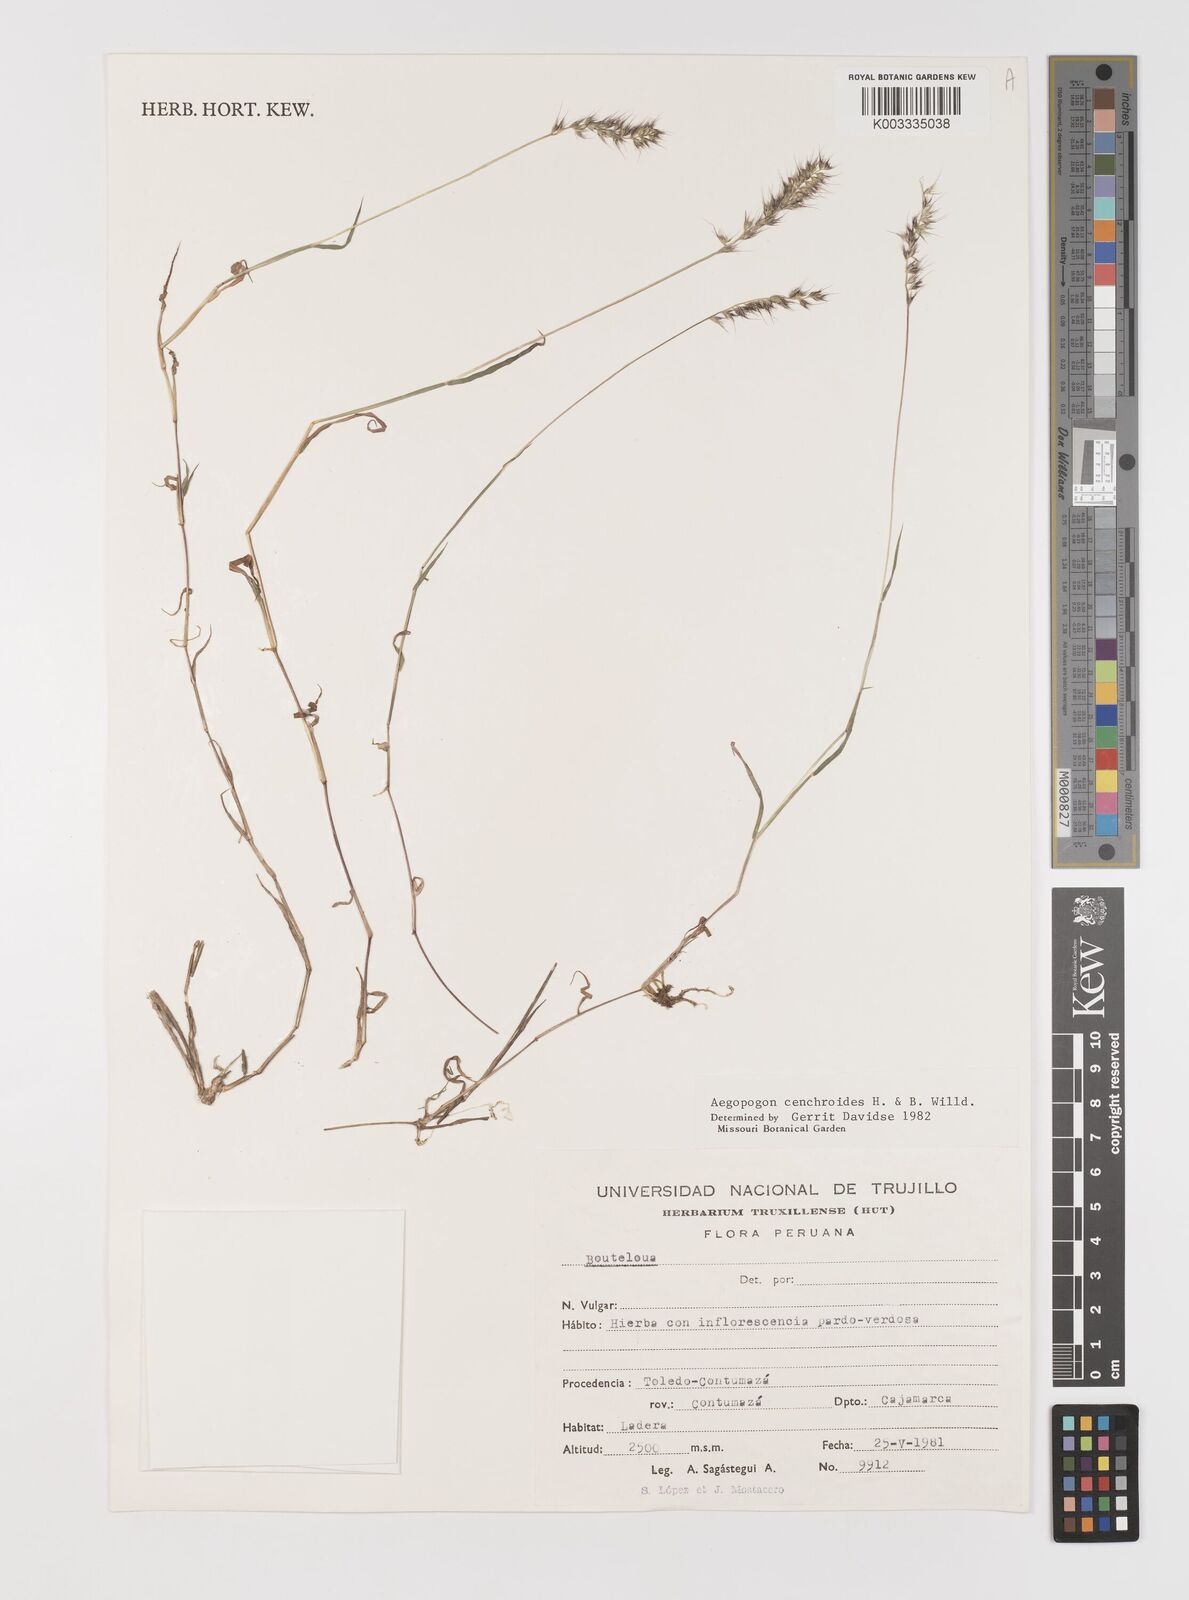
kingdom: Plantae
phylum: Tracheophyta
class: Liliopsida
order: Poales
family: Poaceae
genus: Muhlenbergia
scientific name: Muhlenbergia cenchroides
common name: Relaxgrass
